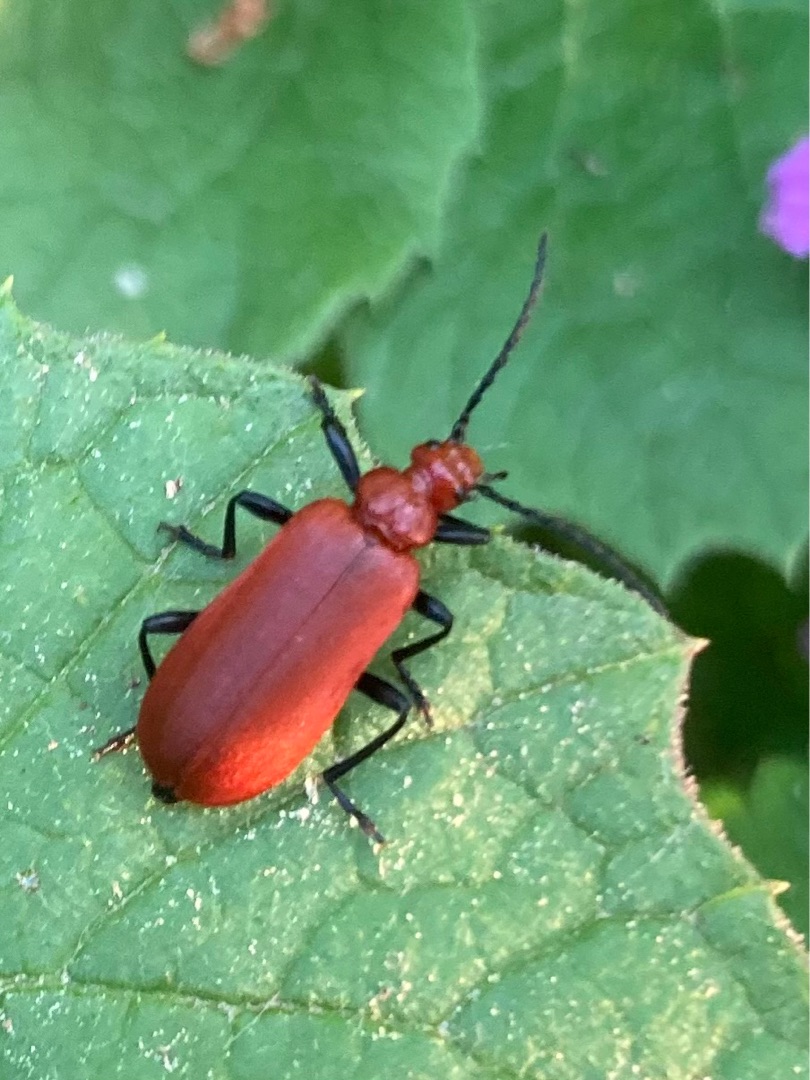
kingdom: Animalia
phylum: Arthropoda
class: Insecta
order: Coleoptera
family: Pyrochroidae
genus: Pyrochroa
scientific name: Pyrochroa serraticornis
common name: Rødhovedet kardinalbille
